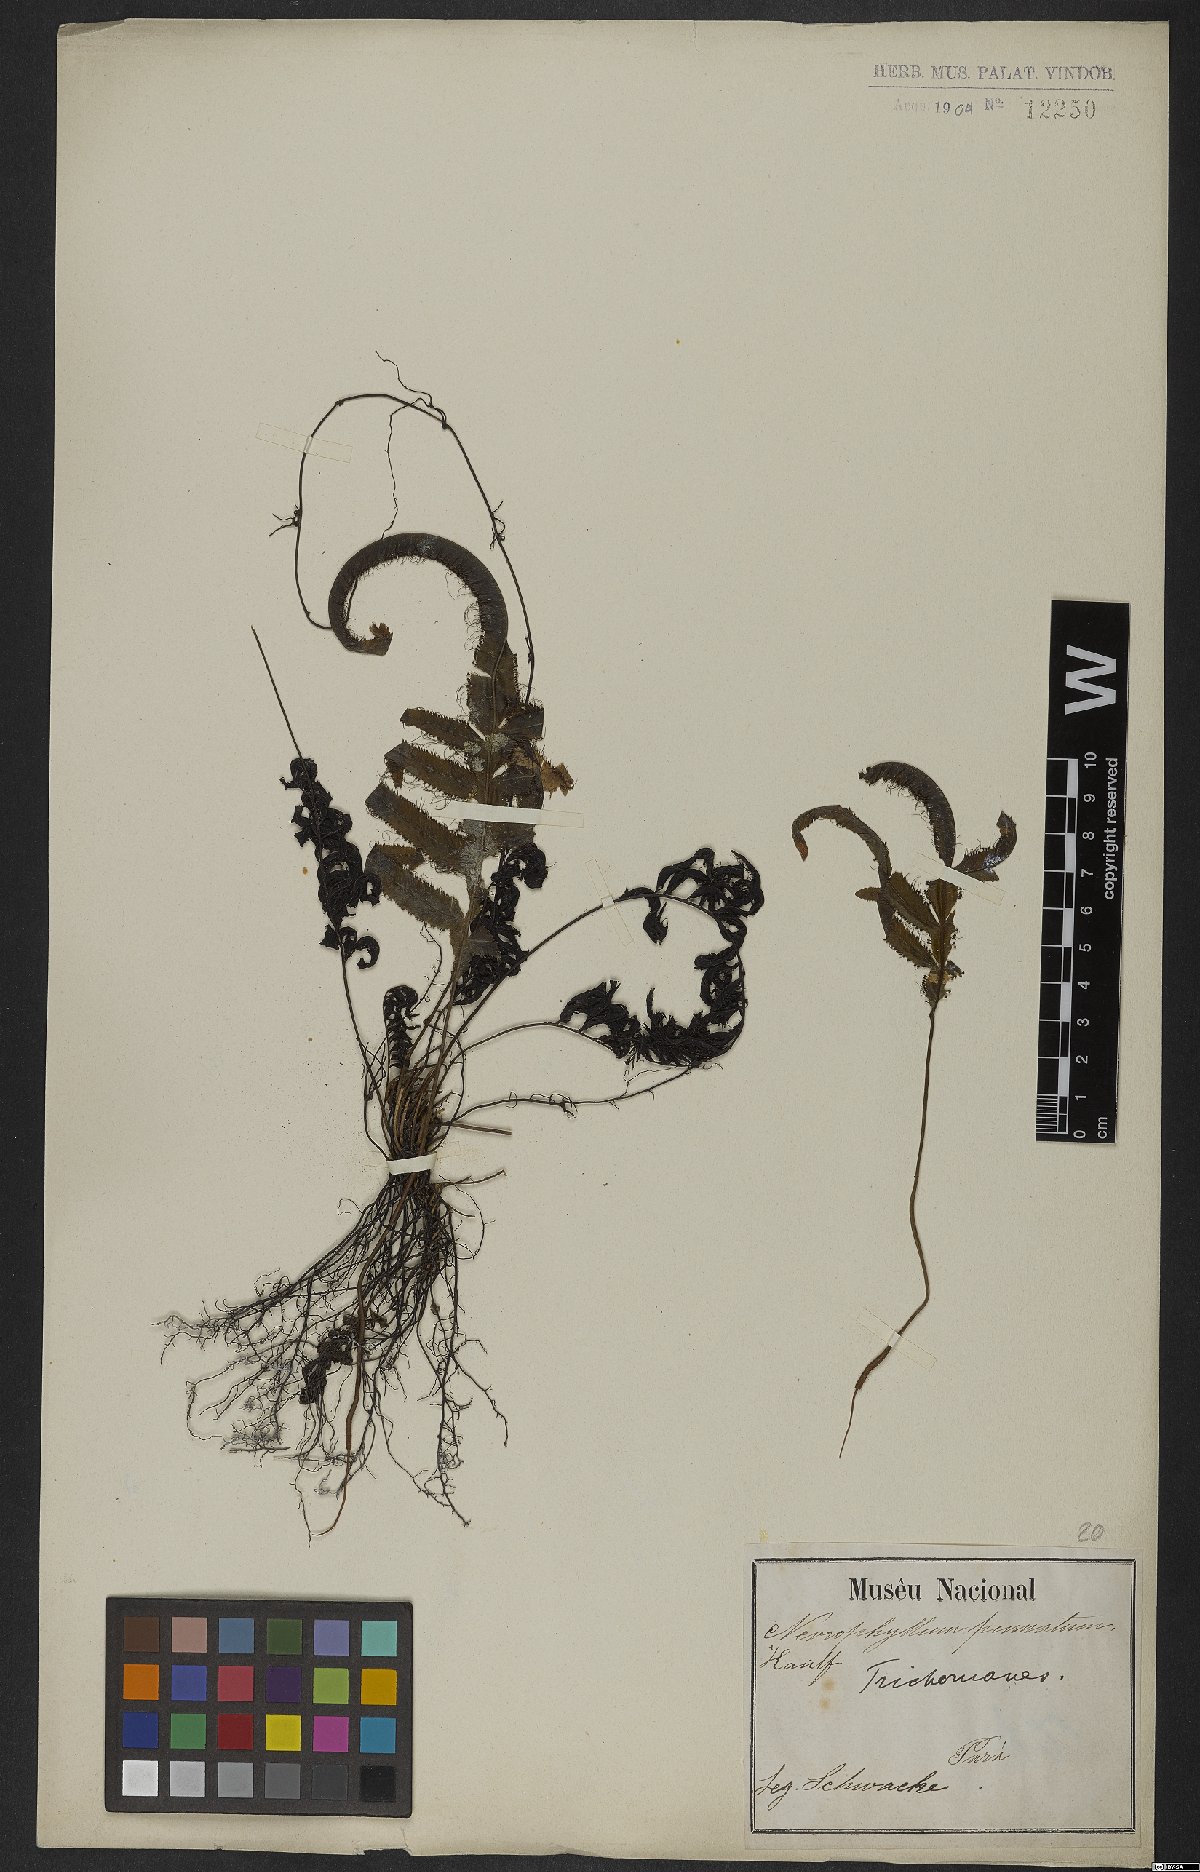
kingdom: Plantae
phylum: Tracheophyta
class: Polypodiopsida
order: Hymenophyllales
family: Hymenophyllaceae
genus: Trichomanes
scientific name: Trichomanes pinnatum
